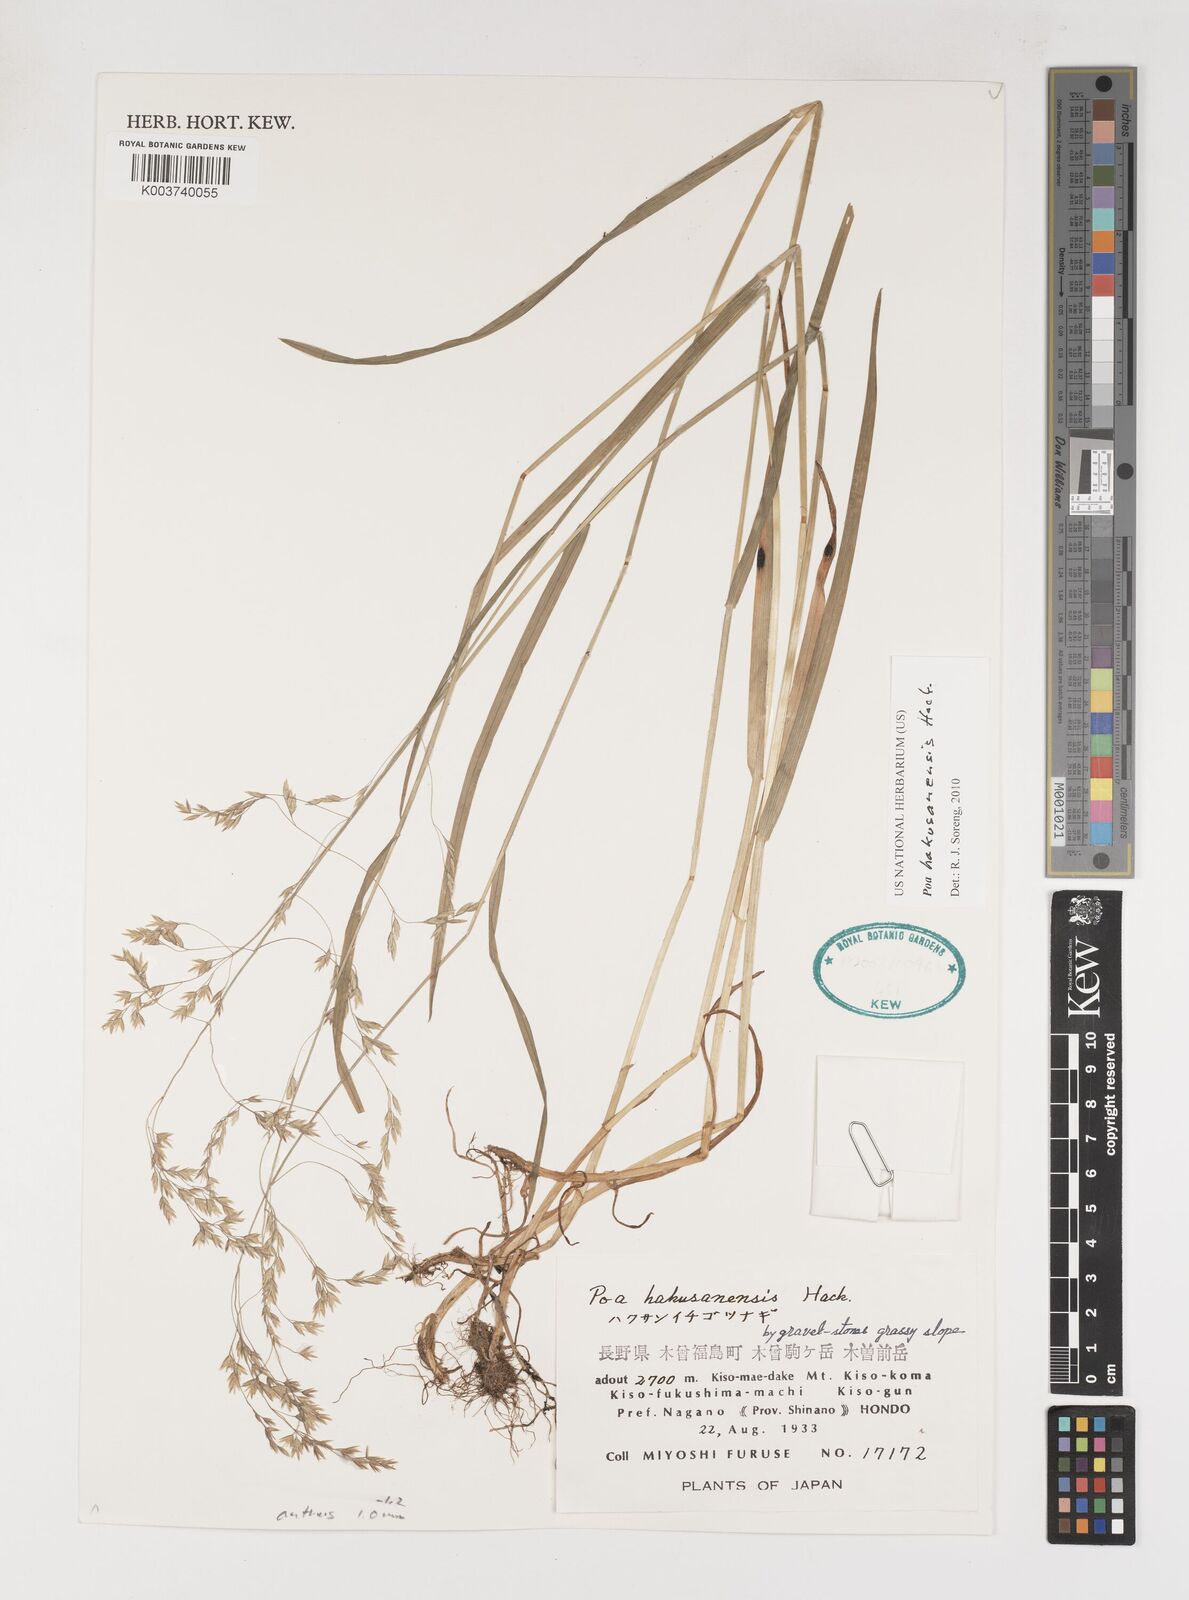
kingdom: Plantae
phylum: Tracheophyta
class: Liliopsida
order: Poales
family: Poaceae
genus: Poa
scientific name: Poa hakusanensis
